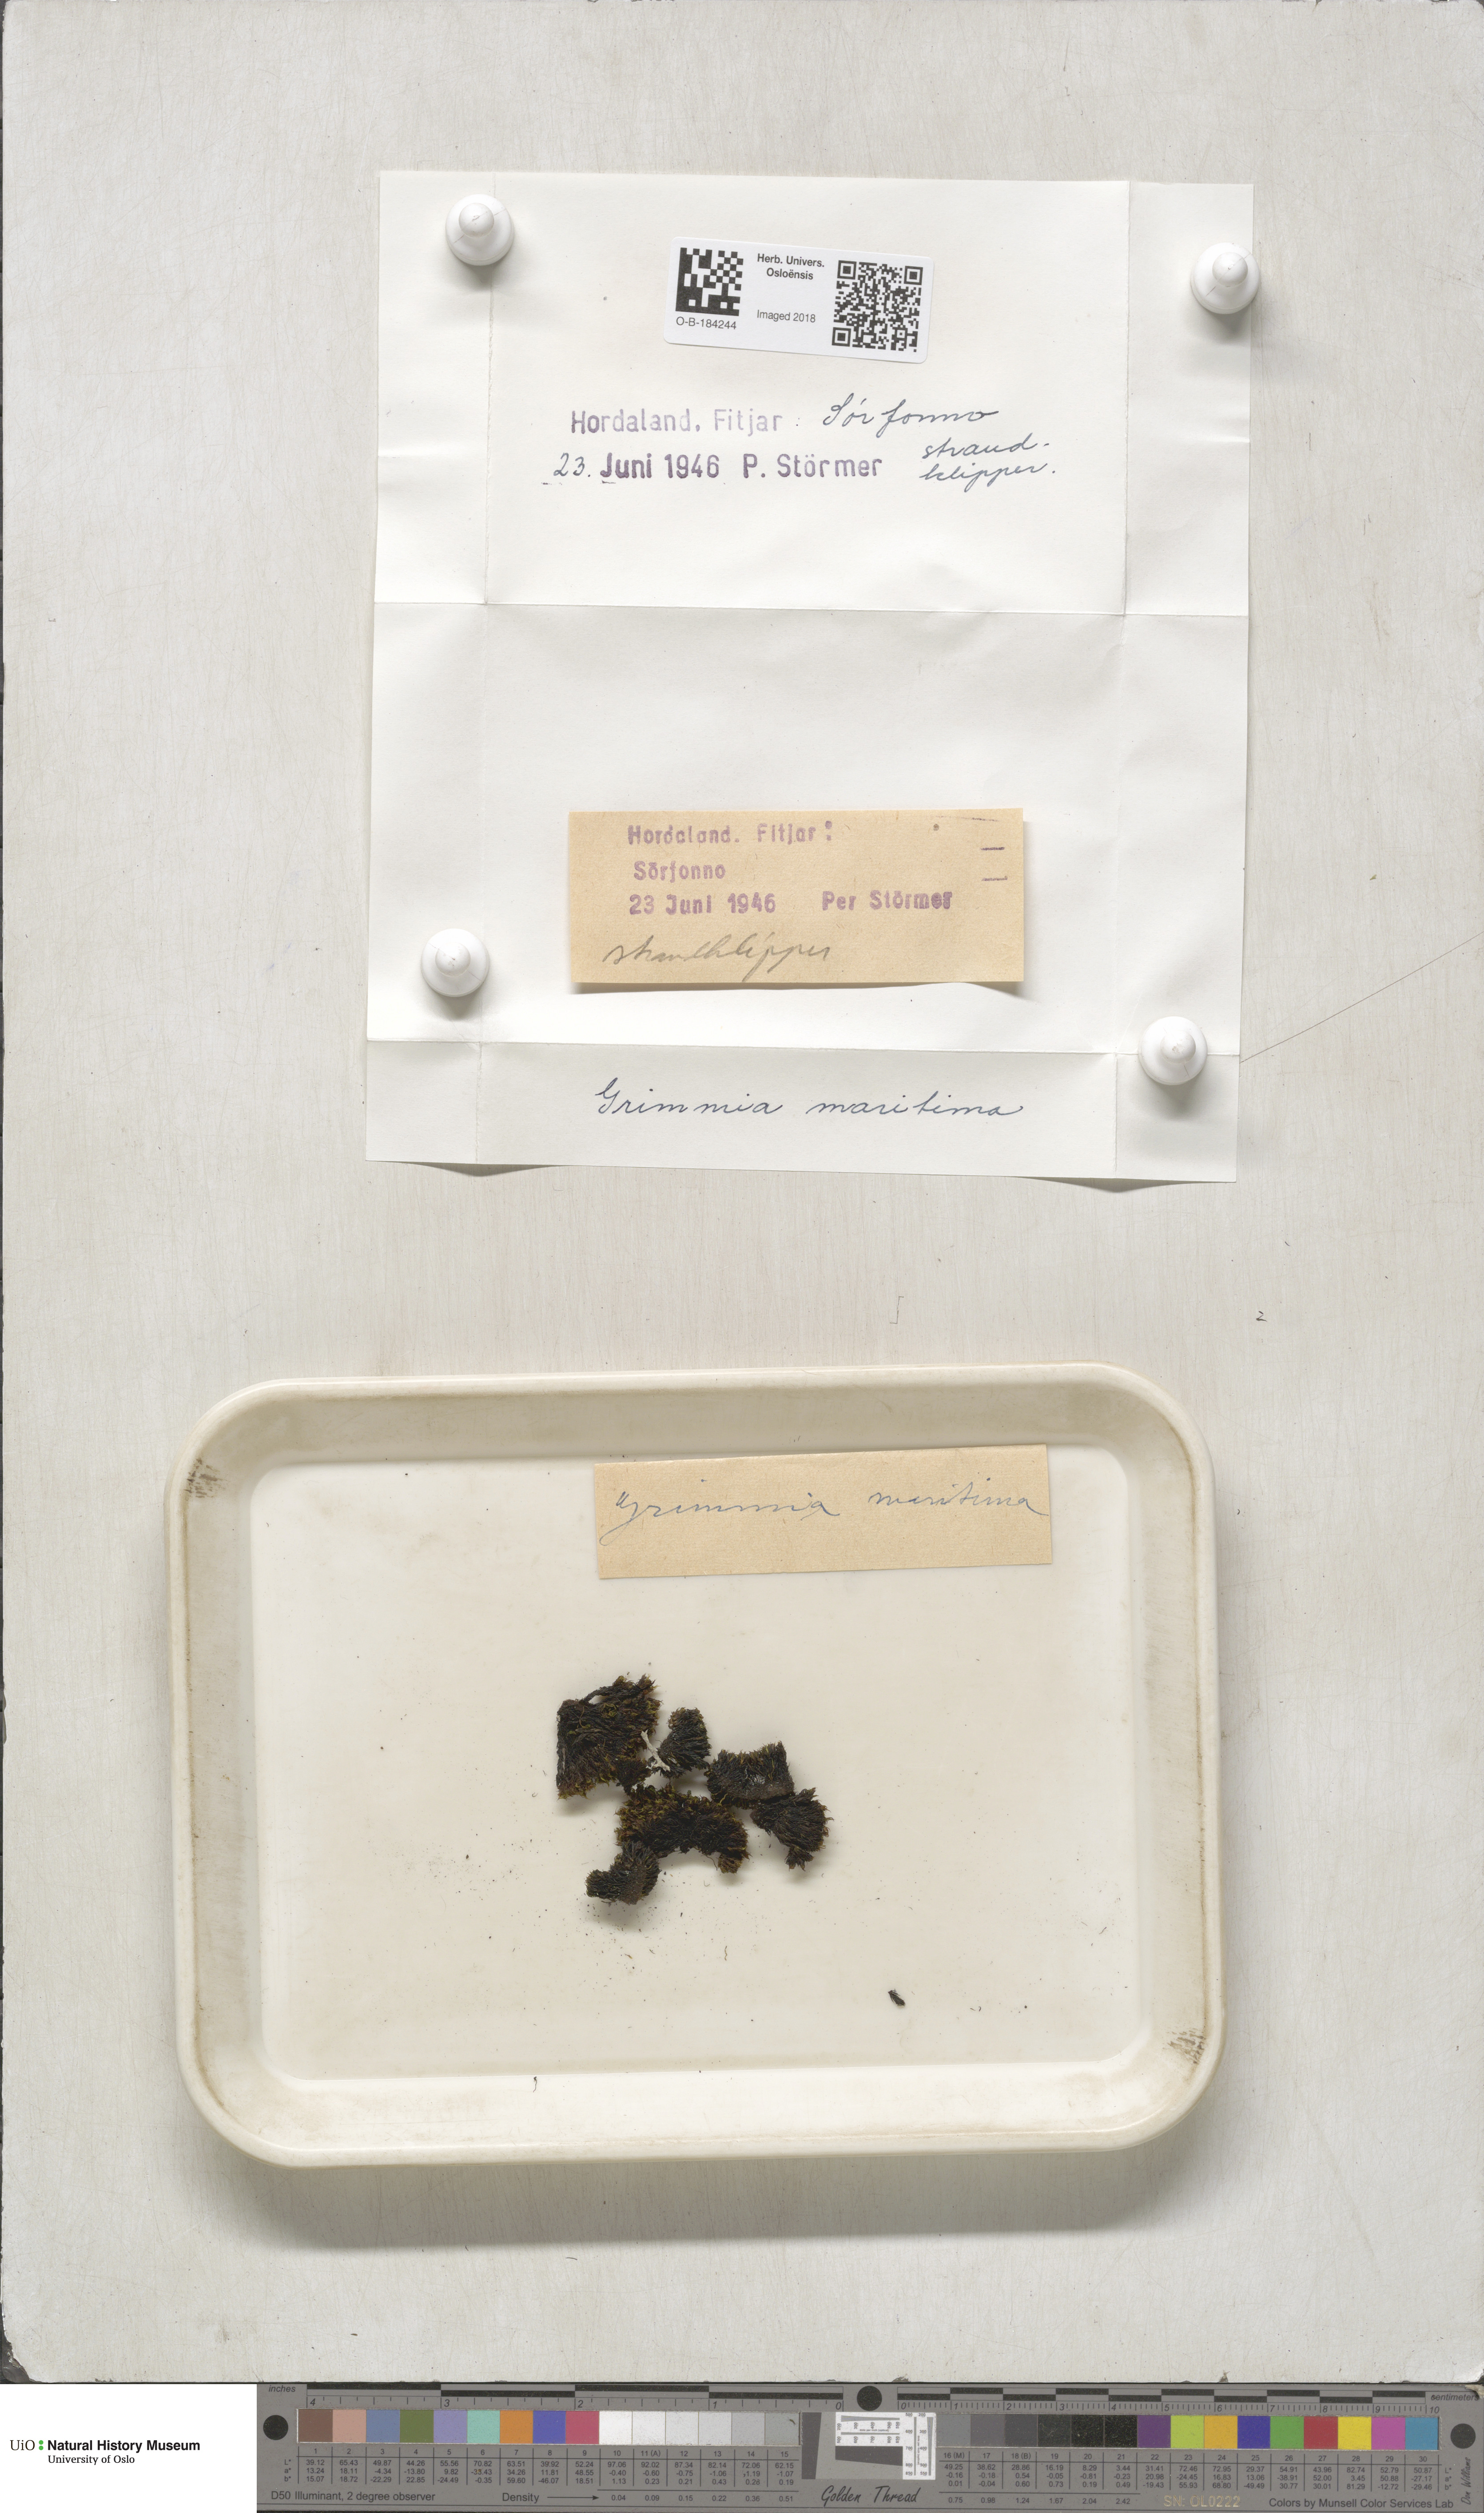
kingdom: Plantae
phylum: Bryophyta
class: Bryopsida
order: Grimmiales
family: Grimmiaceae
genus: Schistidium
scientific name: Schistidium maritimum
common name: Seaside bloom moss
